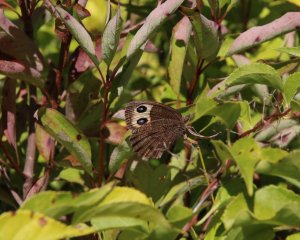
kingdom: Animalia
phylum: Arthropoda
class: Insecta
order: Lepidoptera
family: Nymphalidae
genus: Cercyonis
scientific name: Cercyonis pegala
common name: Common Wood-Nymph
